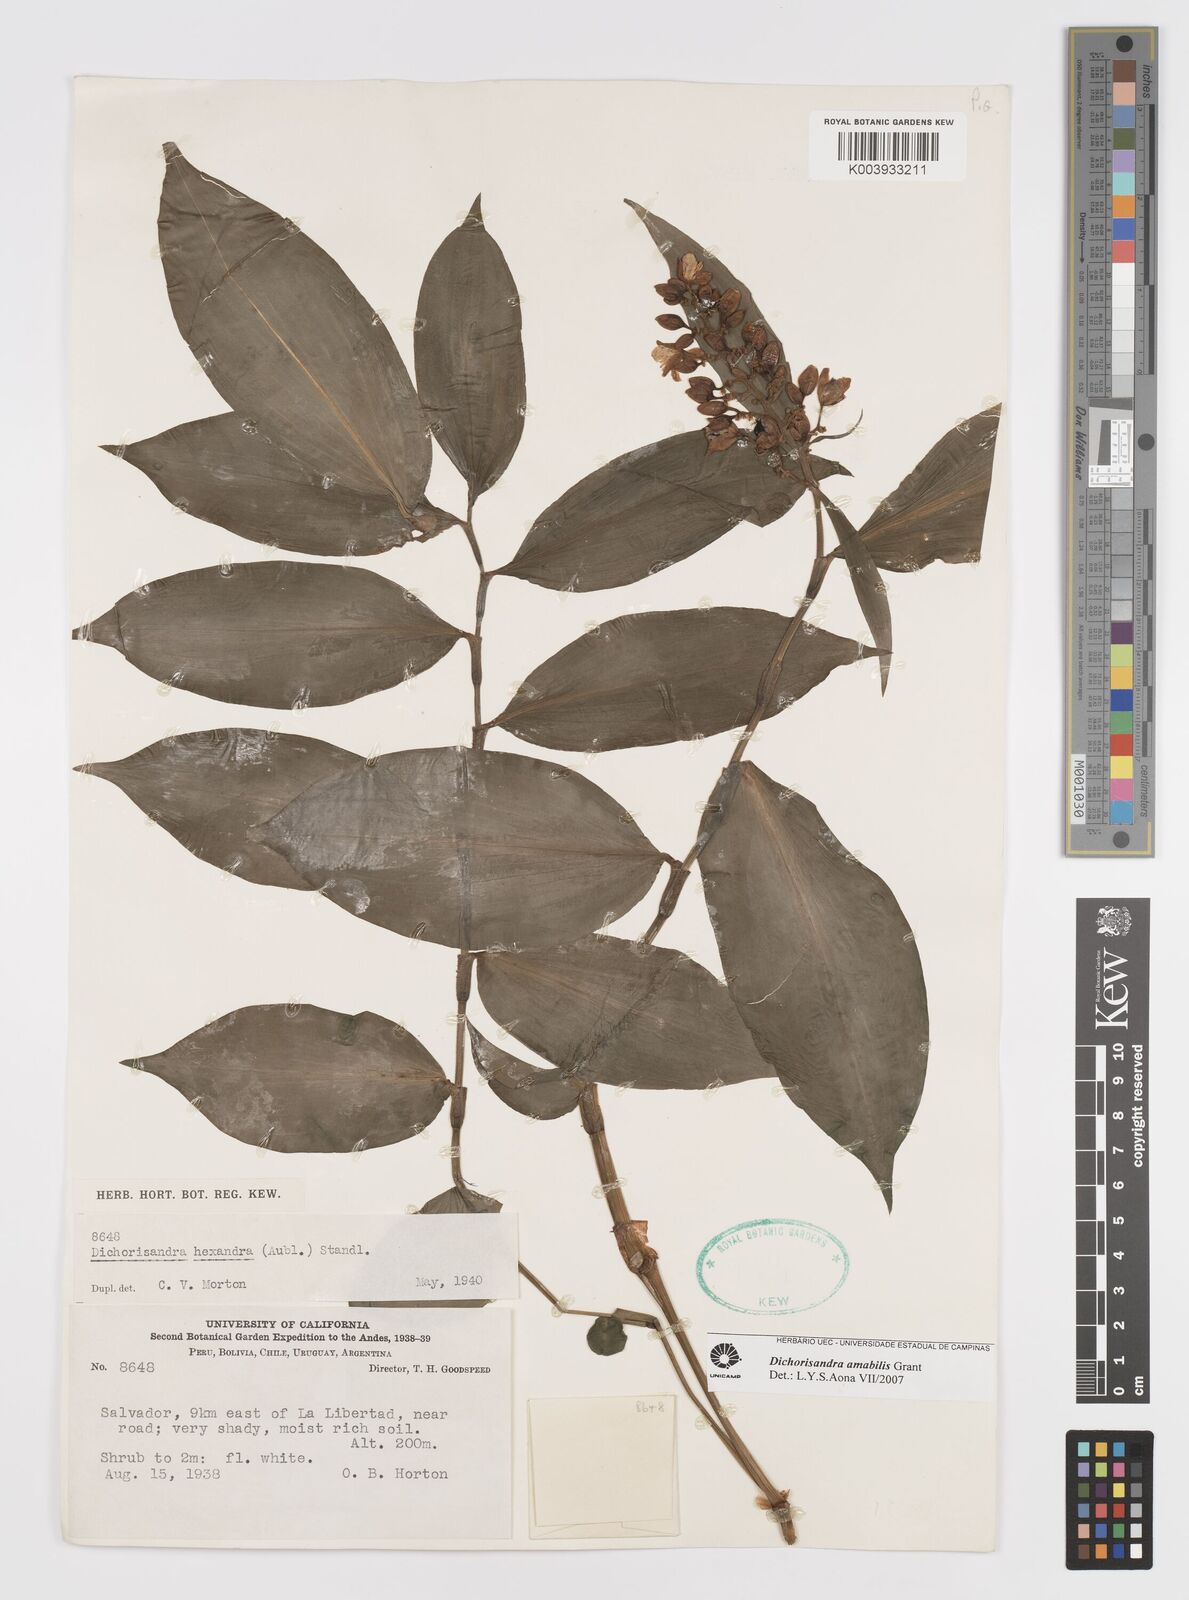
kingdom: Plantae
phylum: Tracheophyta
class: Liliopsida
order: Commelinales
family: Commelinaceae
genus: Dichorisandra
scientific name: Dichorisandra amabilis
